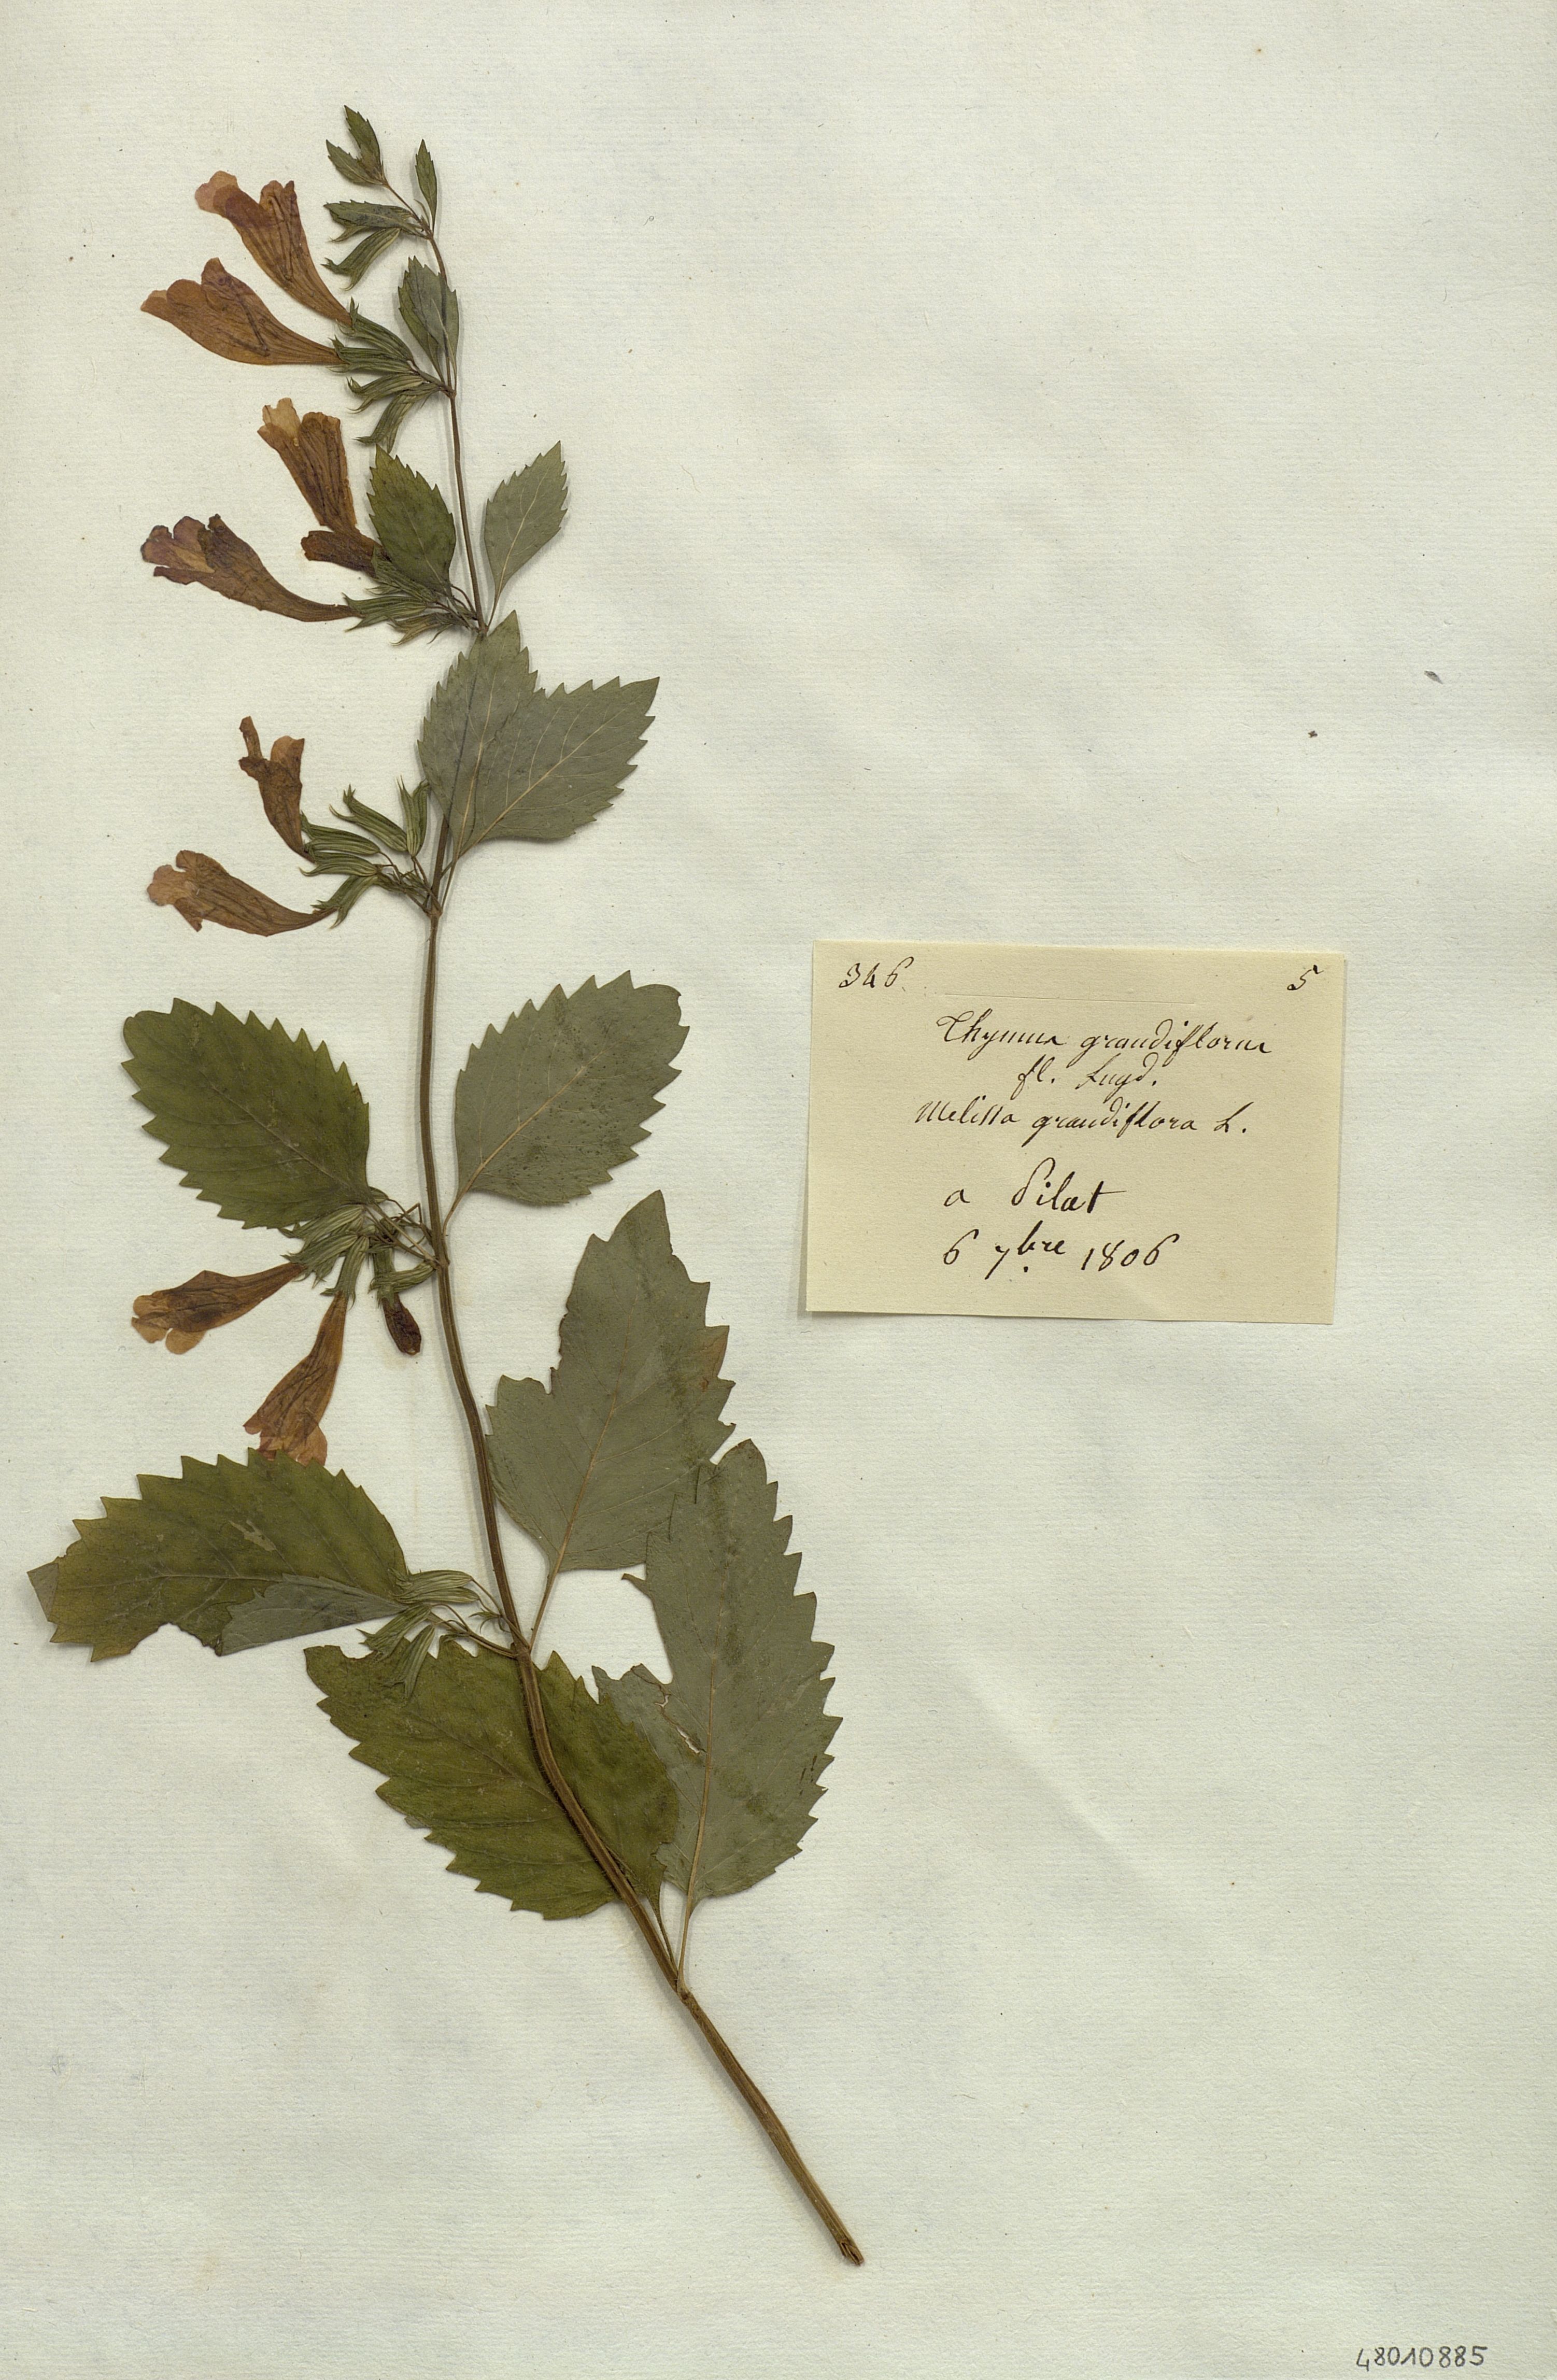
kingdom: Plantae
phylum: Tracheophyta
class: Magnoliopsida
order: Lamiales
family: Lamiaceae
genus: Thymus
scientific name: Thymus grandiflorus
